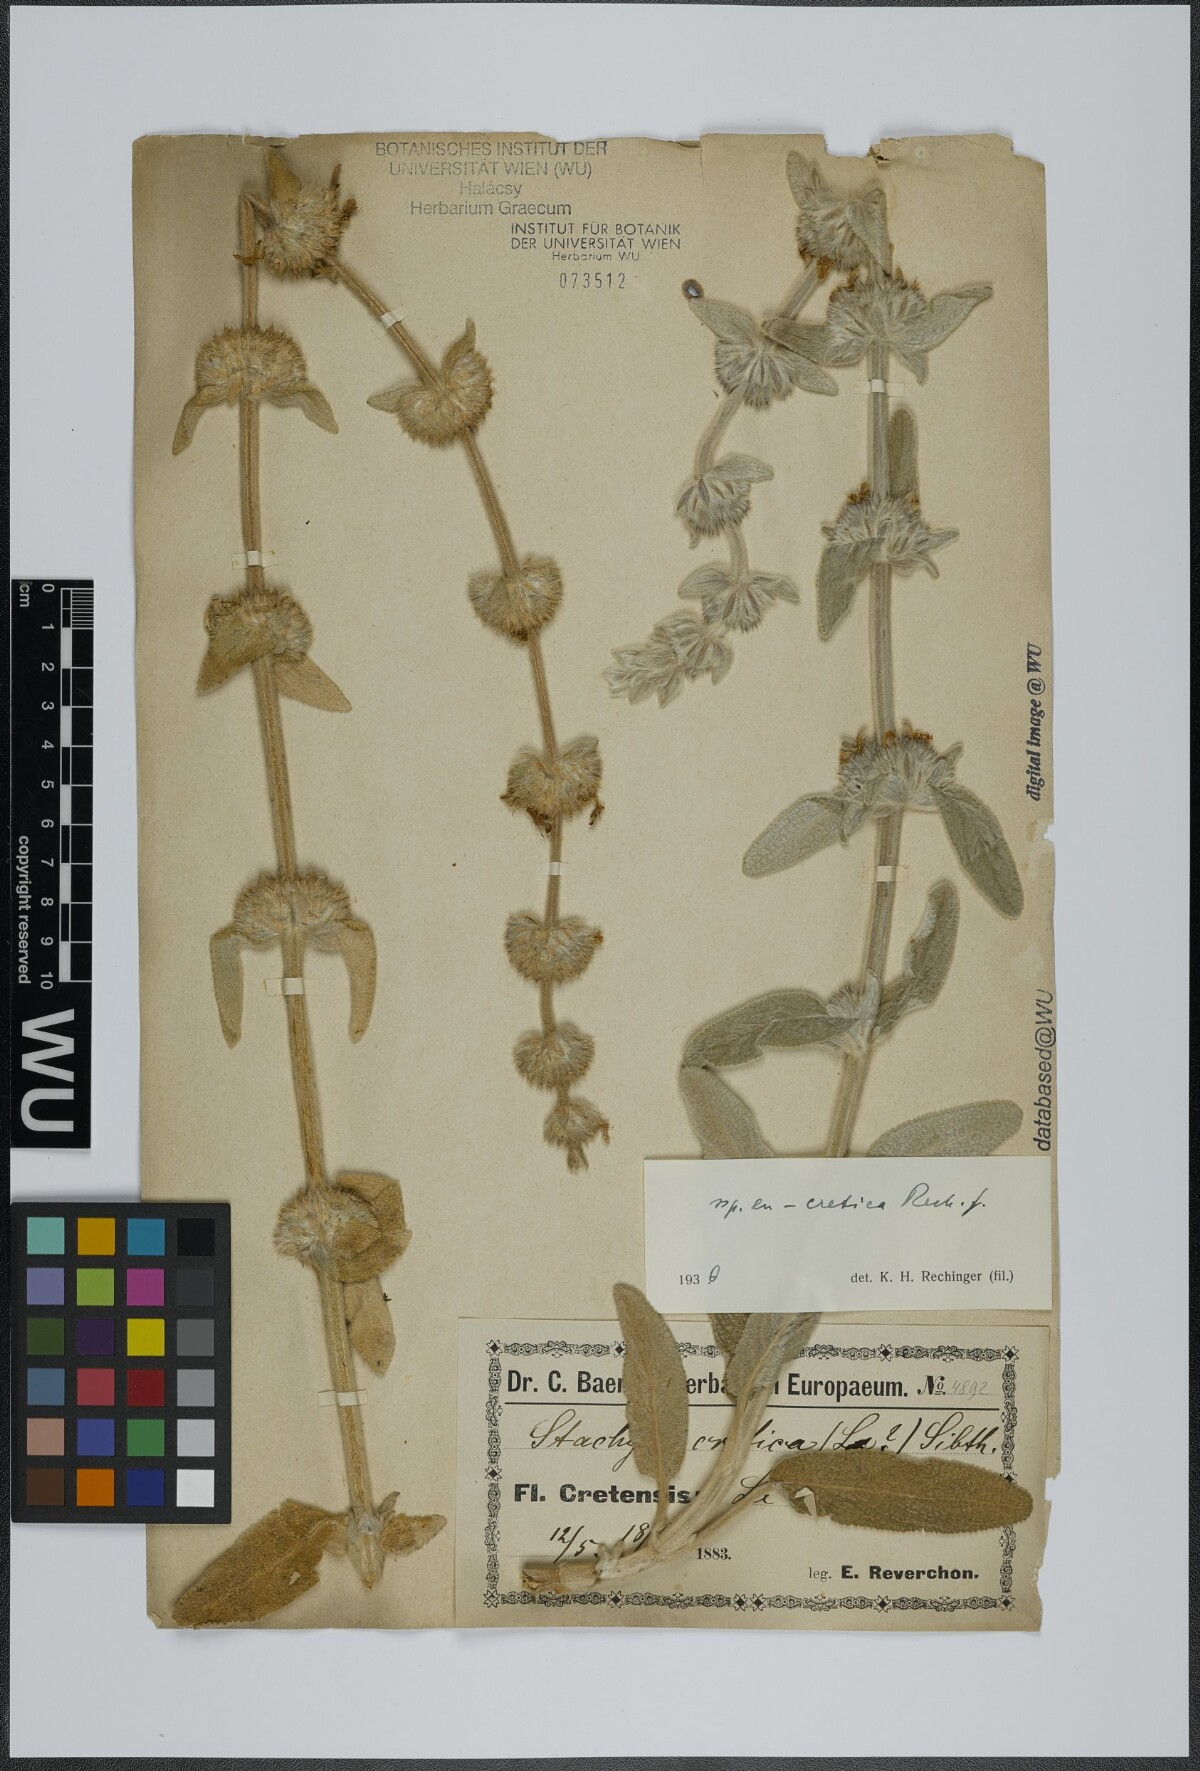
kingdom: Plantae
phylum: Tracheophyta
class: Magnoliopsida
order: Lamiales
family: Lamiaceae
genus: Stachys
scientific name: Stachys cretica
